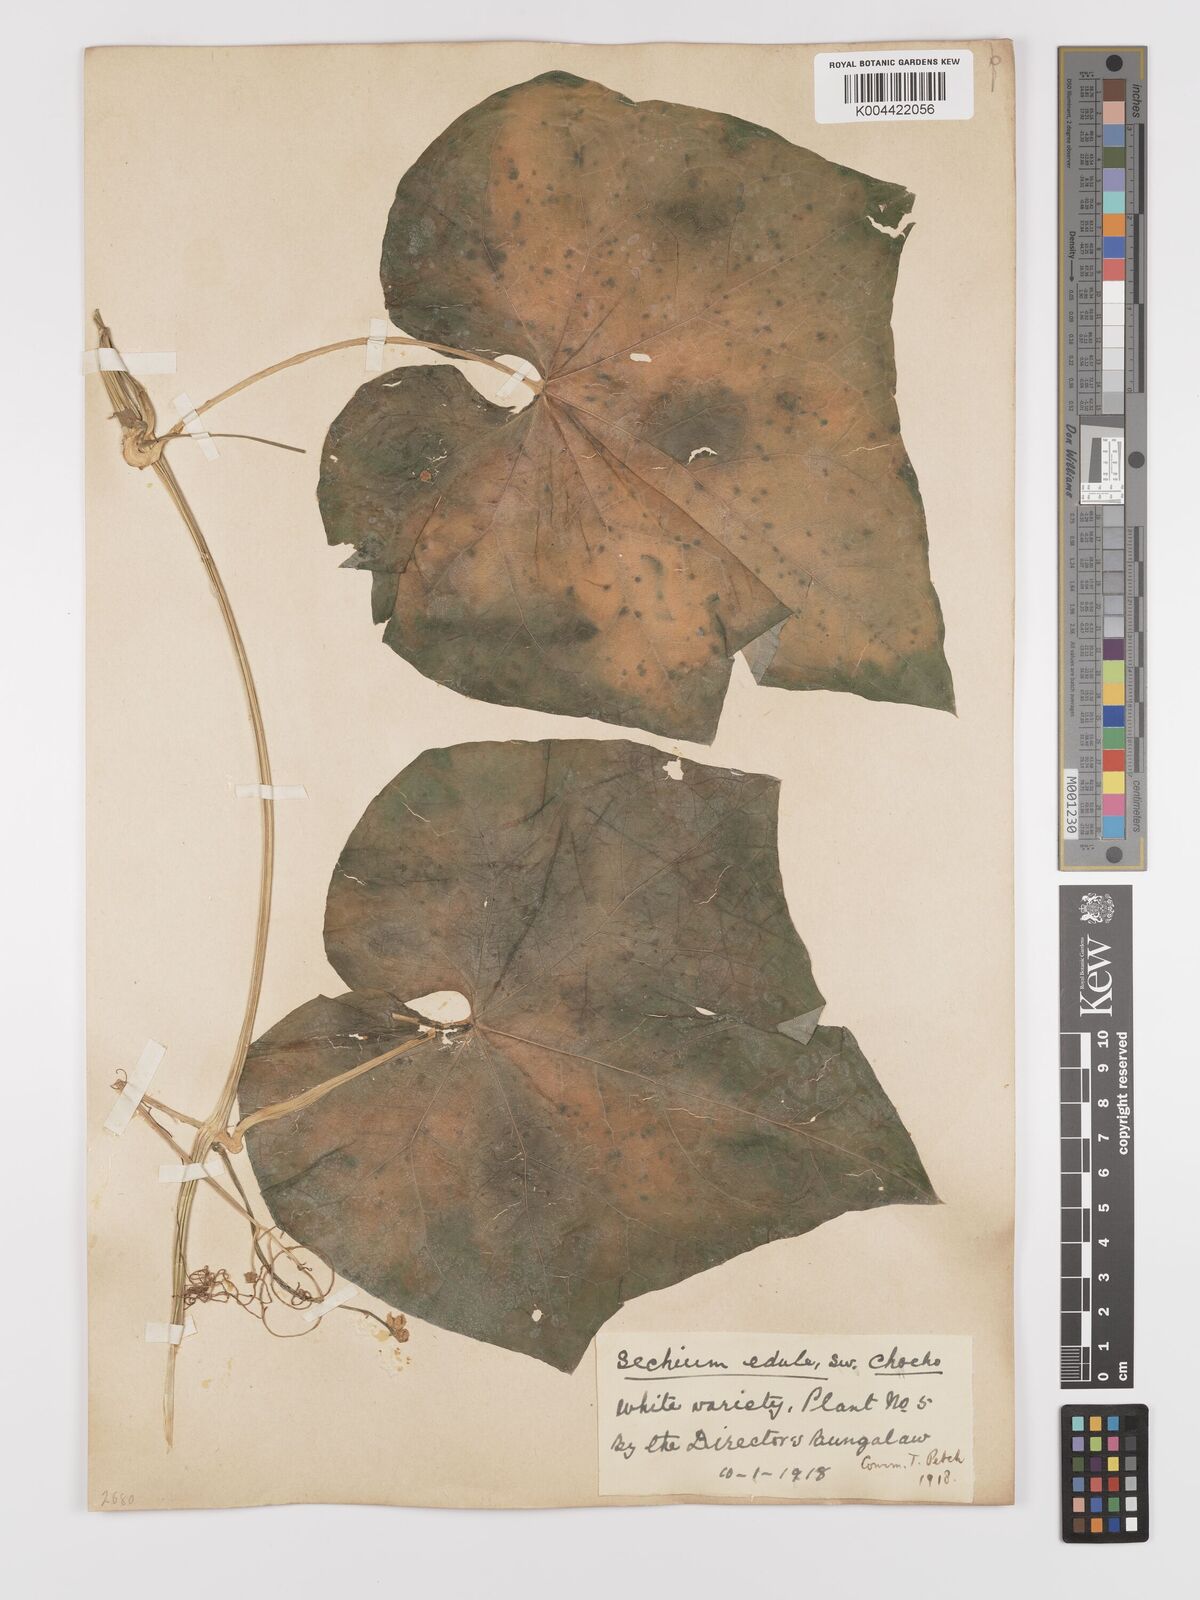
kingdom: Plantae
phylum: Tracheophyta
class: Magnoliopsida
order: Cucurbitales
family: Cucurbitaceae
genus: Sechium
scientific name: Sechium edule
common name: Chayote
